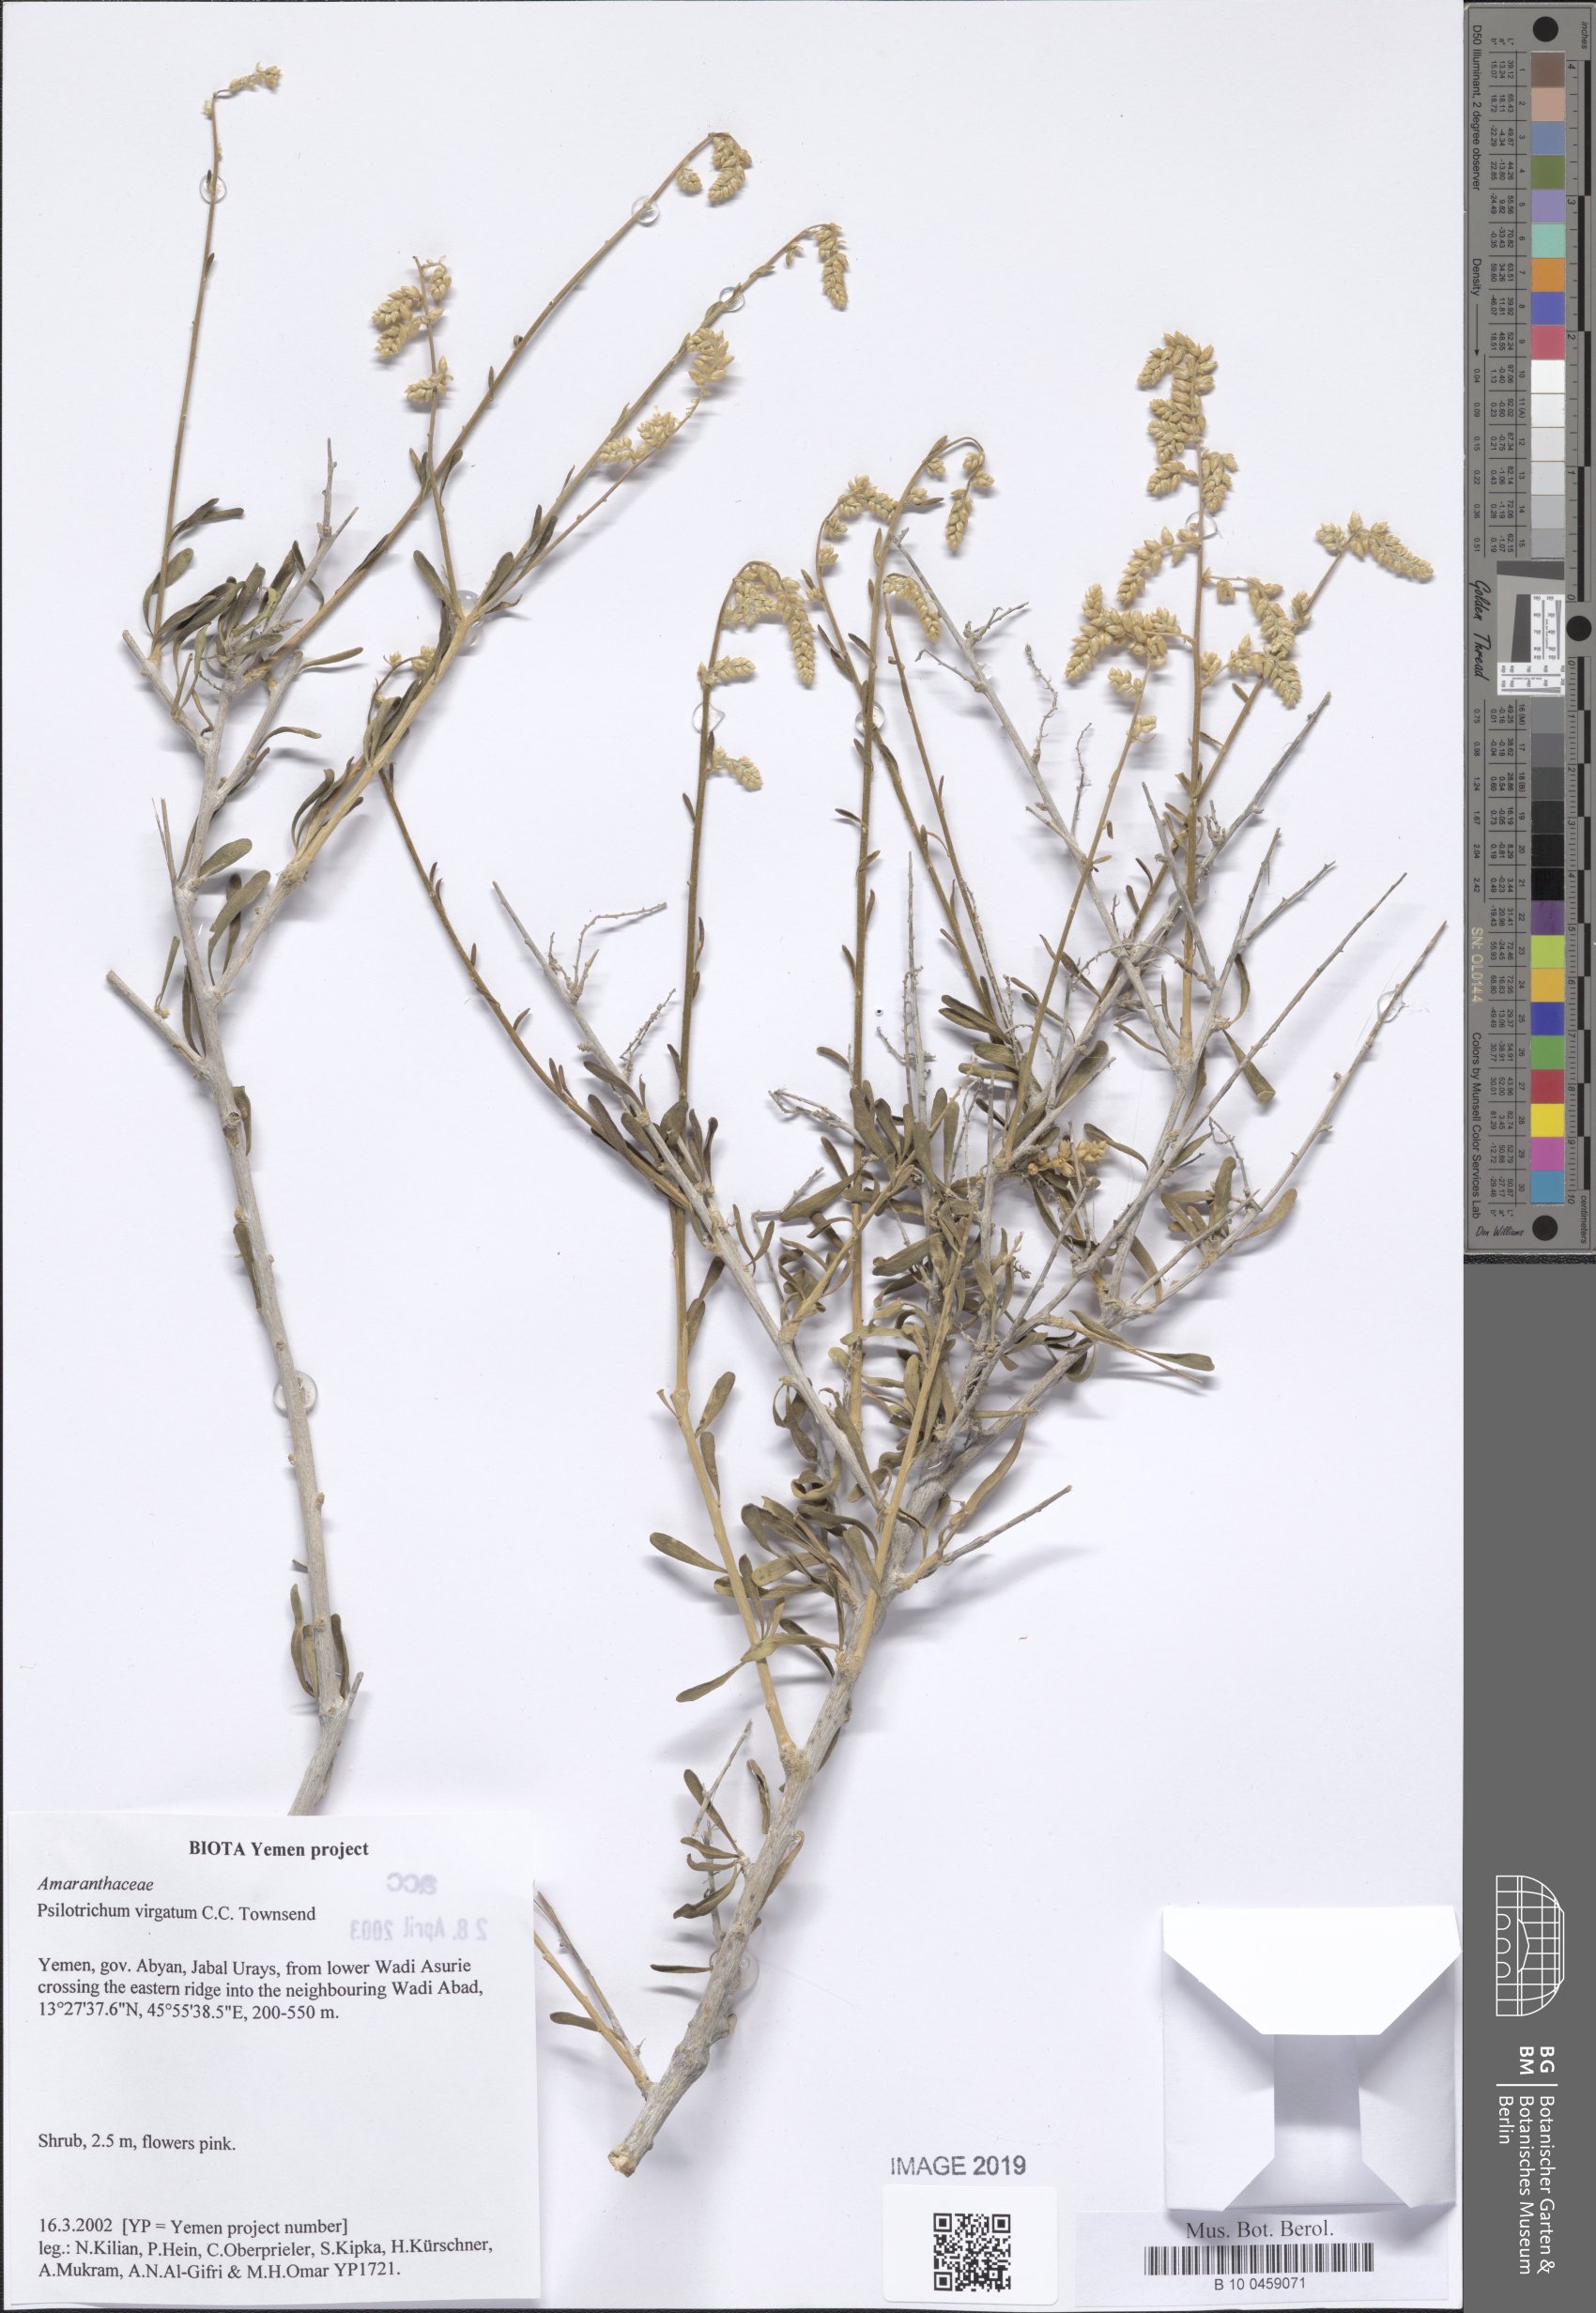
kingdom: Plantae
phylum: Tracheophyta
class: Magnoliopsida
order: Caryophyllales
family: Amaranthaceae
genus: Psilotrichum
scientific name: Psilotrichum virgatum
